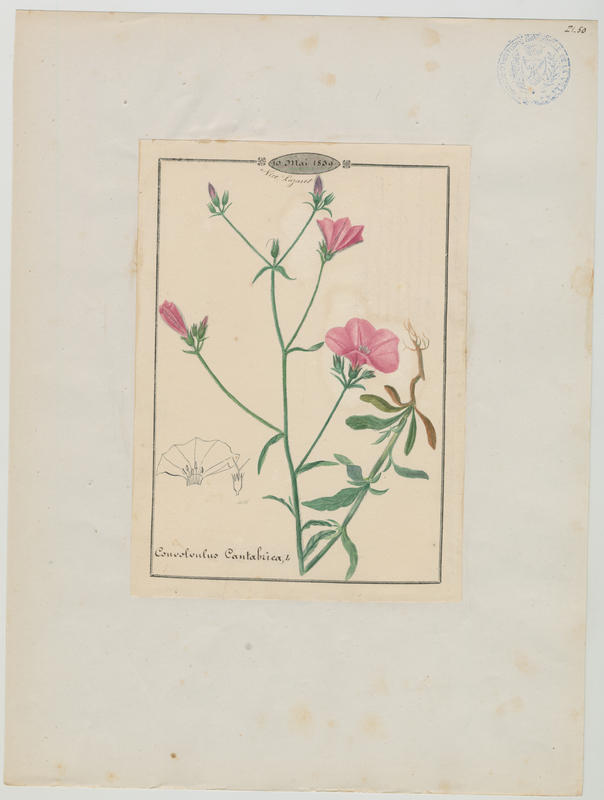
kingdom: Plantae
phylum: Tracheophyta
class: Magnoliopsida
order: Solanales
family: Convolvulaceae
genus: Convolvulus
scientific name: Convolvulus cantabrica
